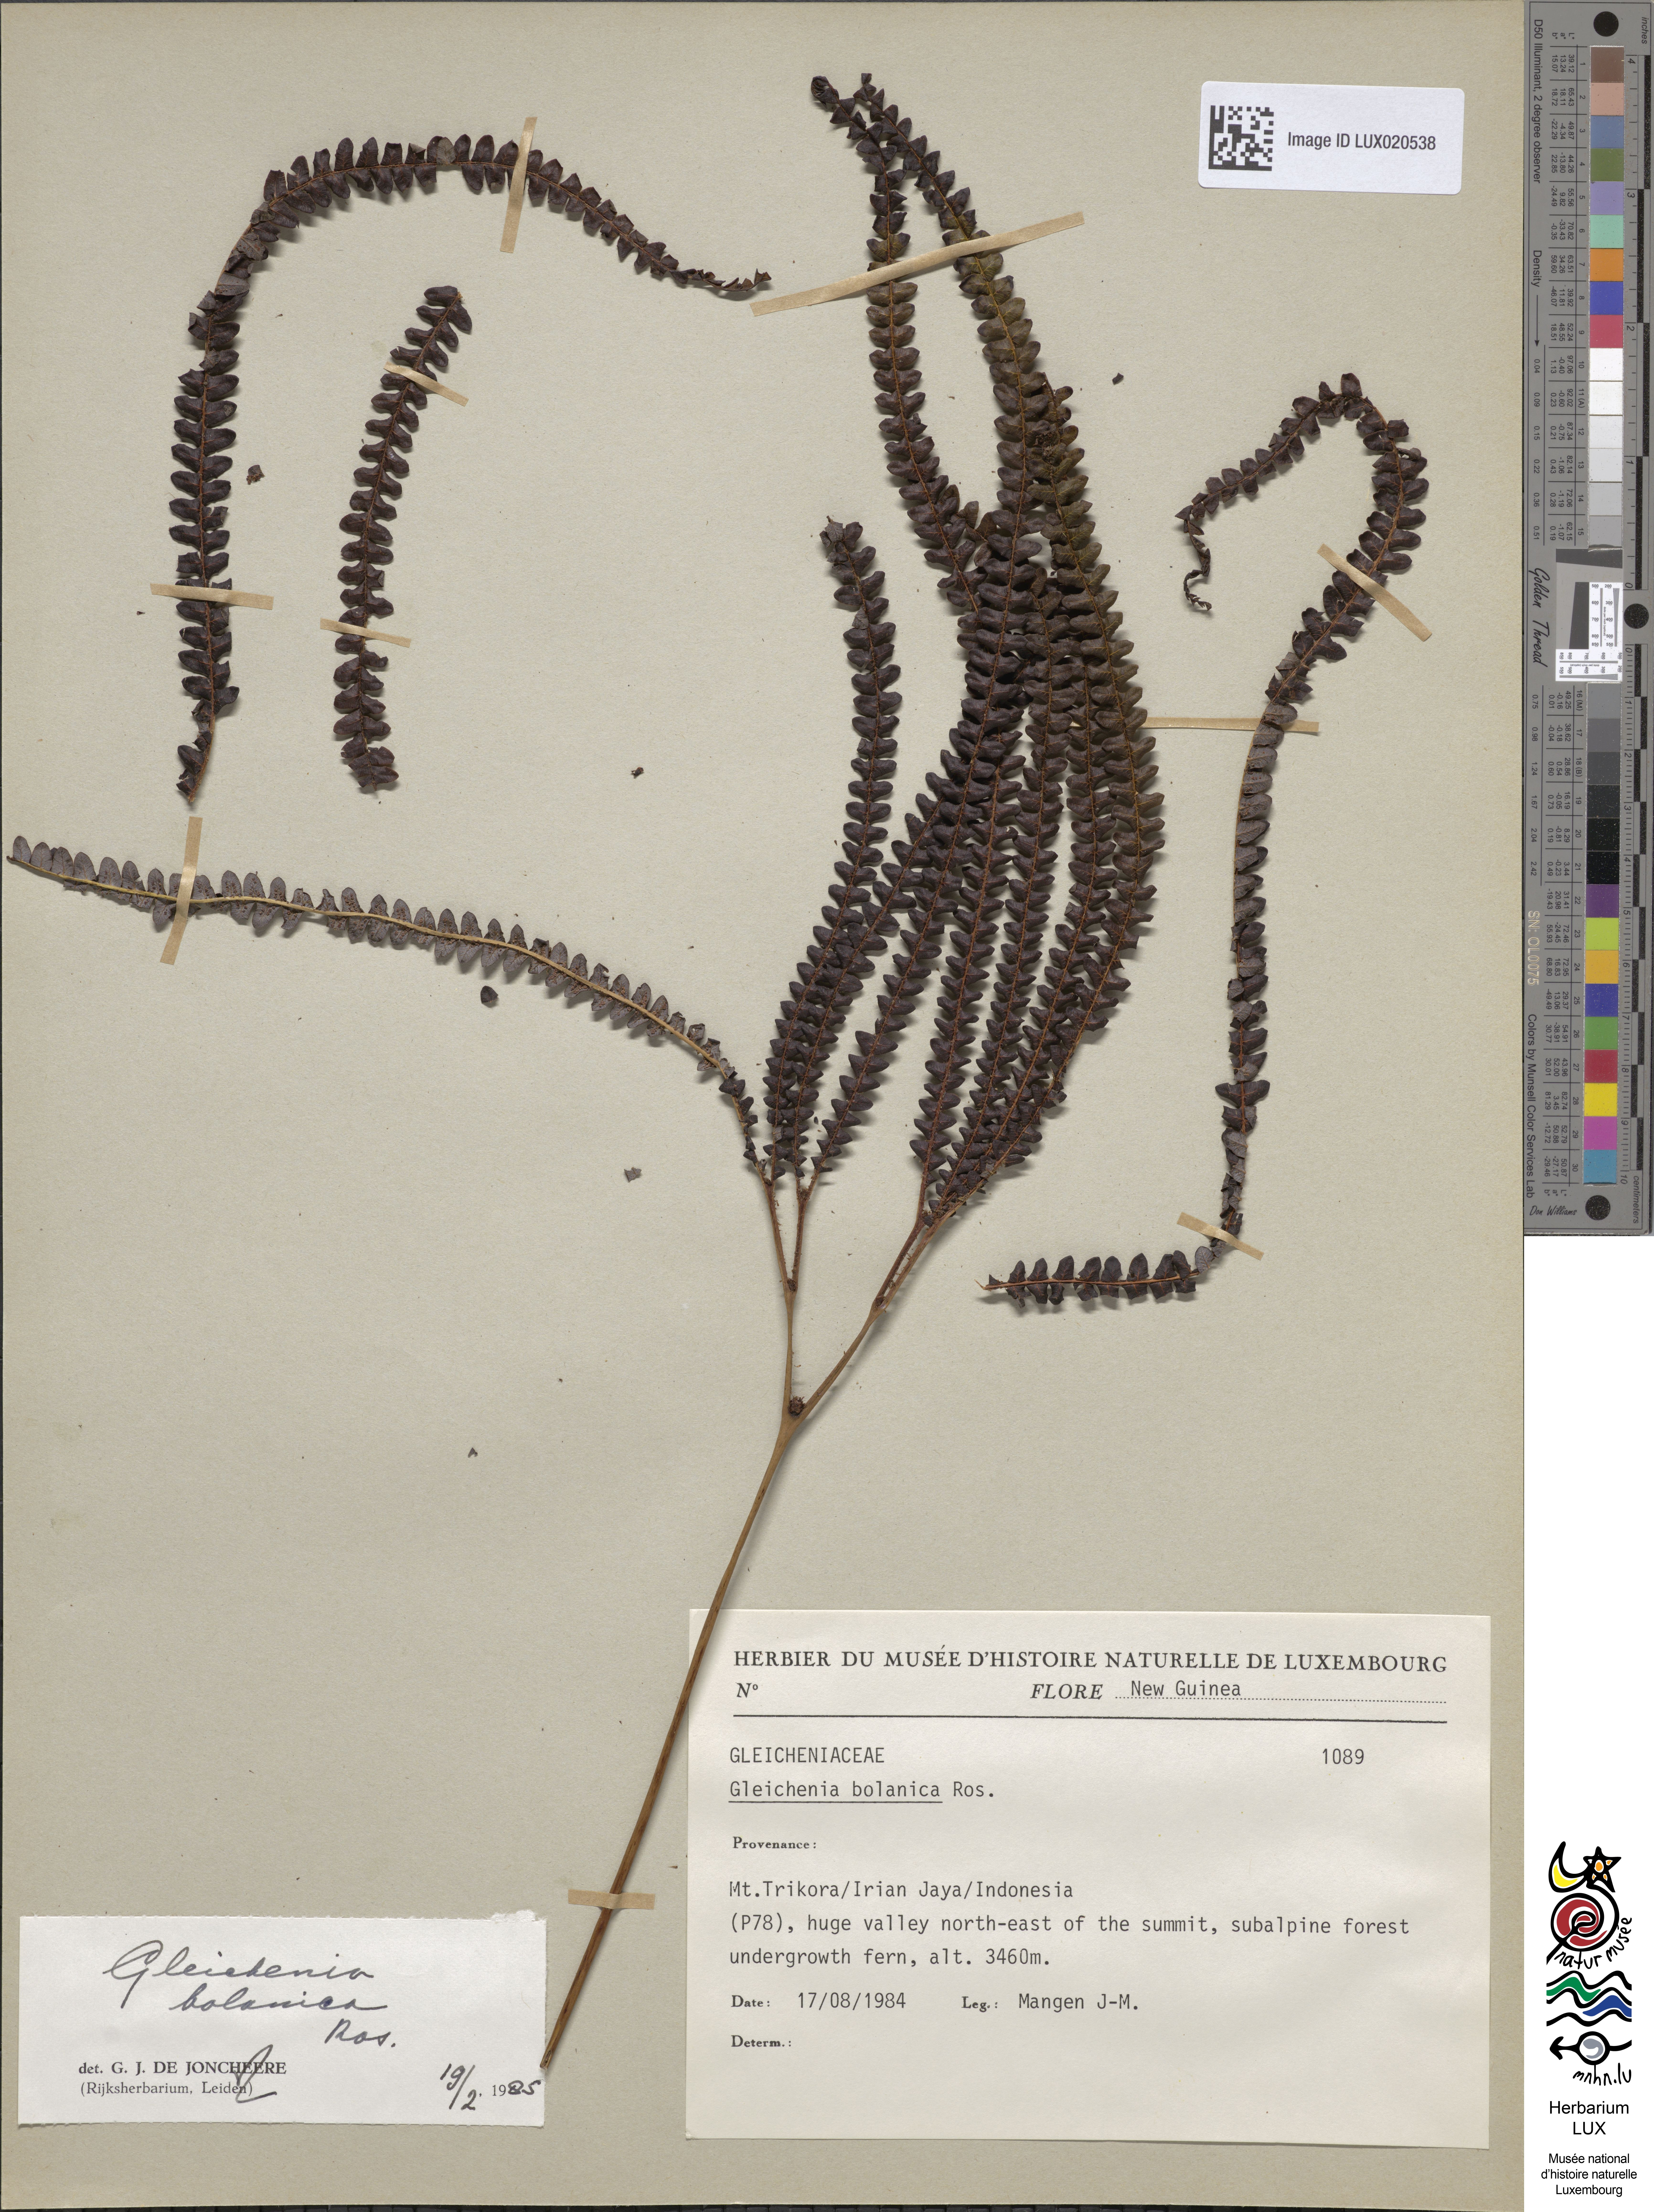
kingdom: Plantae
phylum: Tracheophyta
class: Polypodiopsida
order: Gleicheniales
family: Gleicheniaceae
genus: Sticherus
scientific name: Sticherus bolanicus
